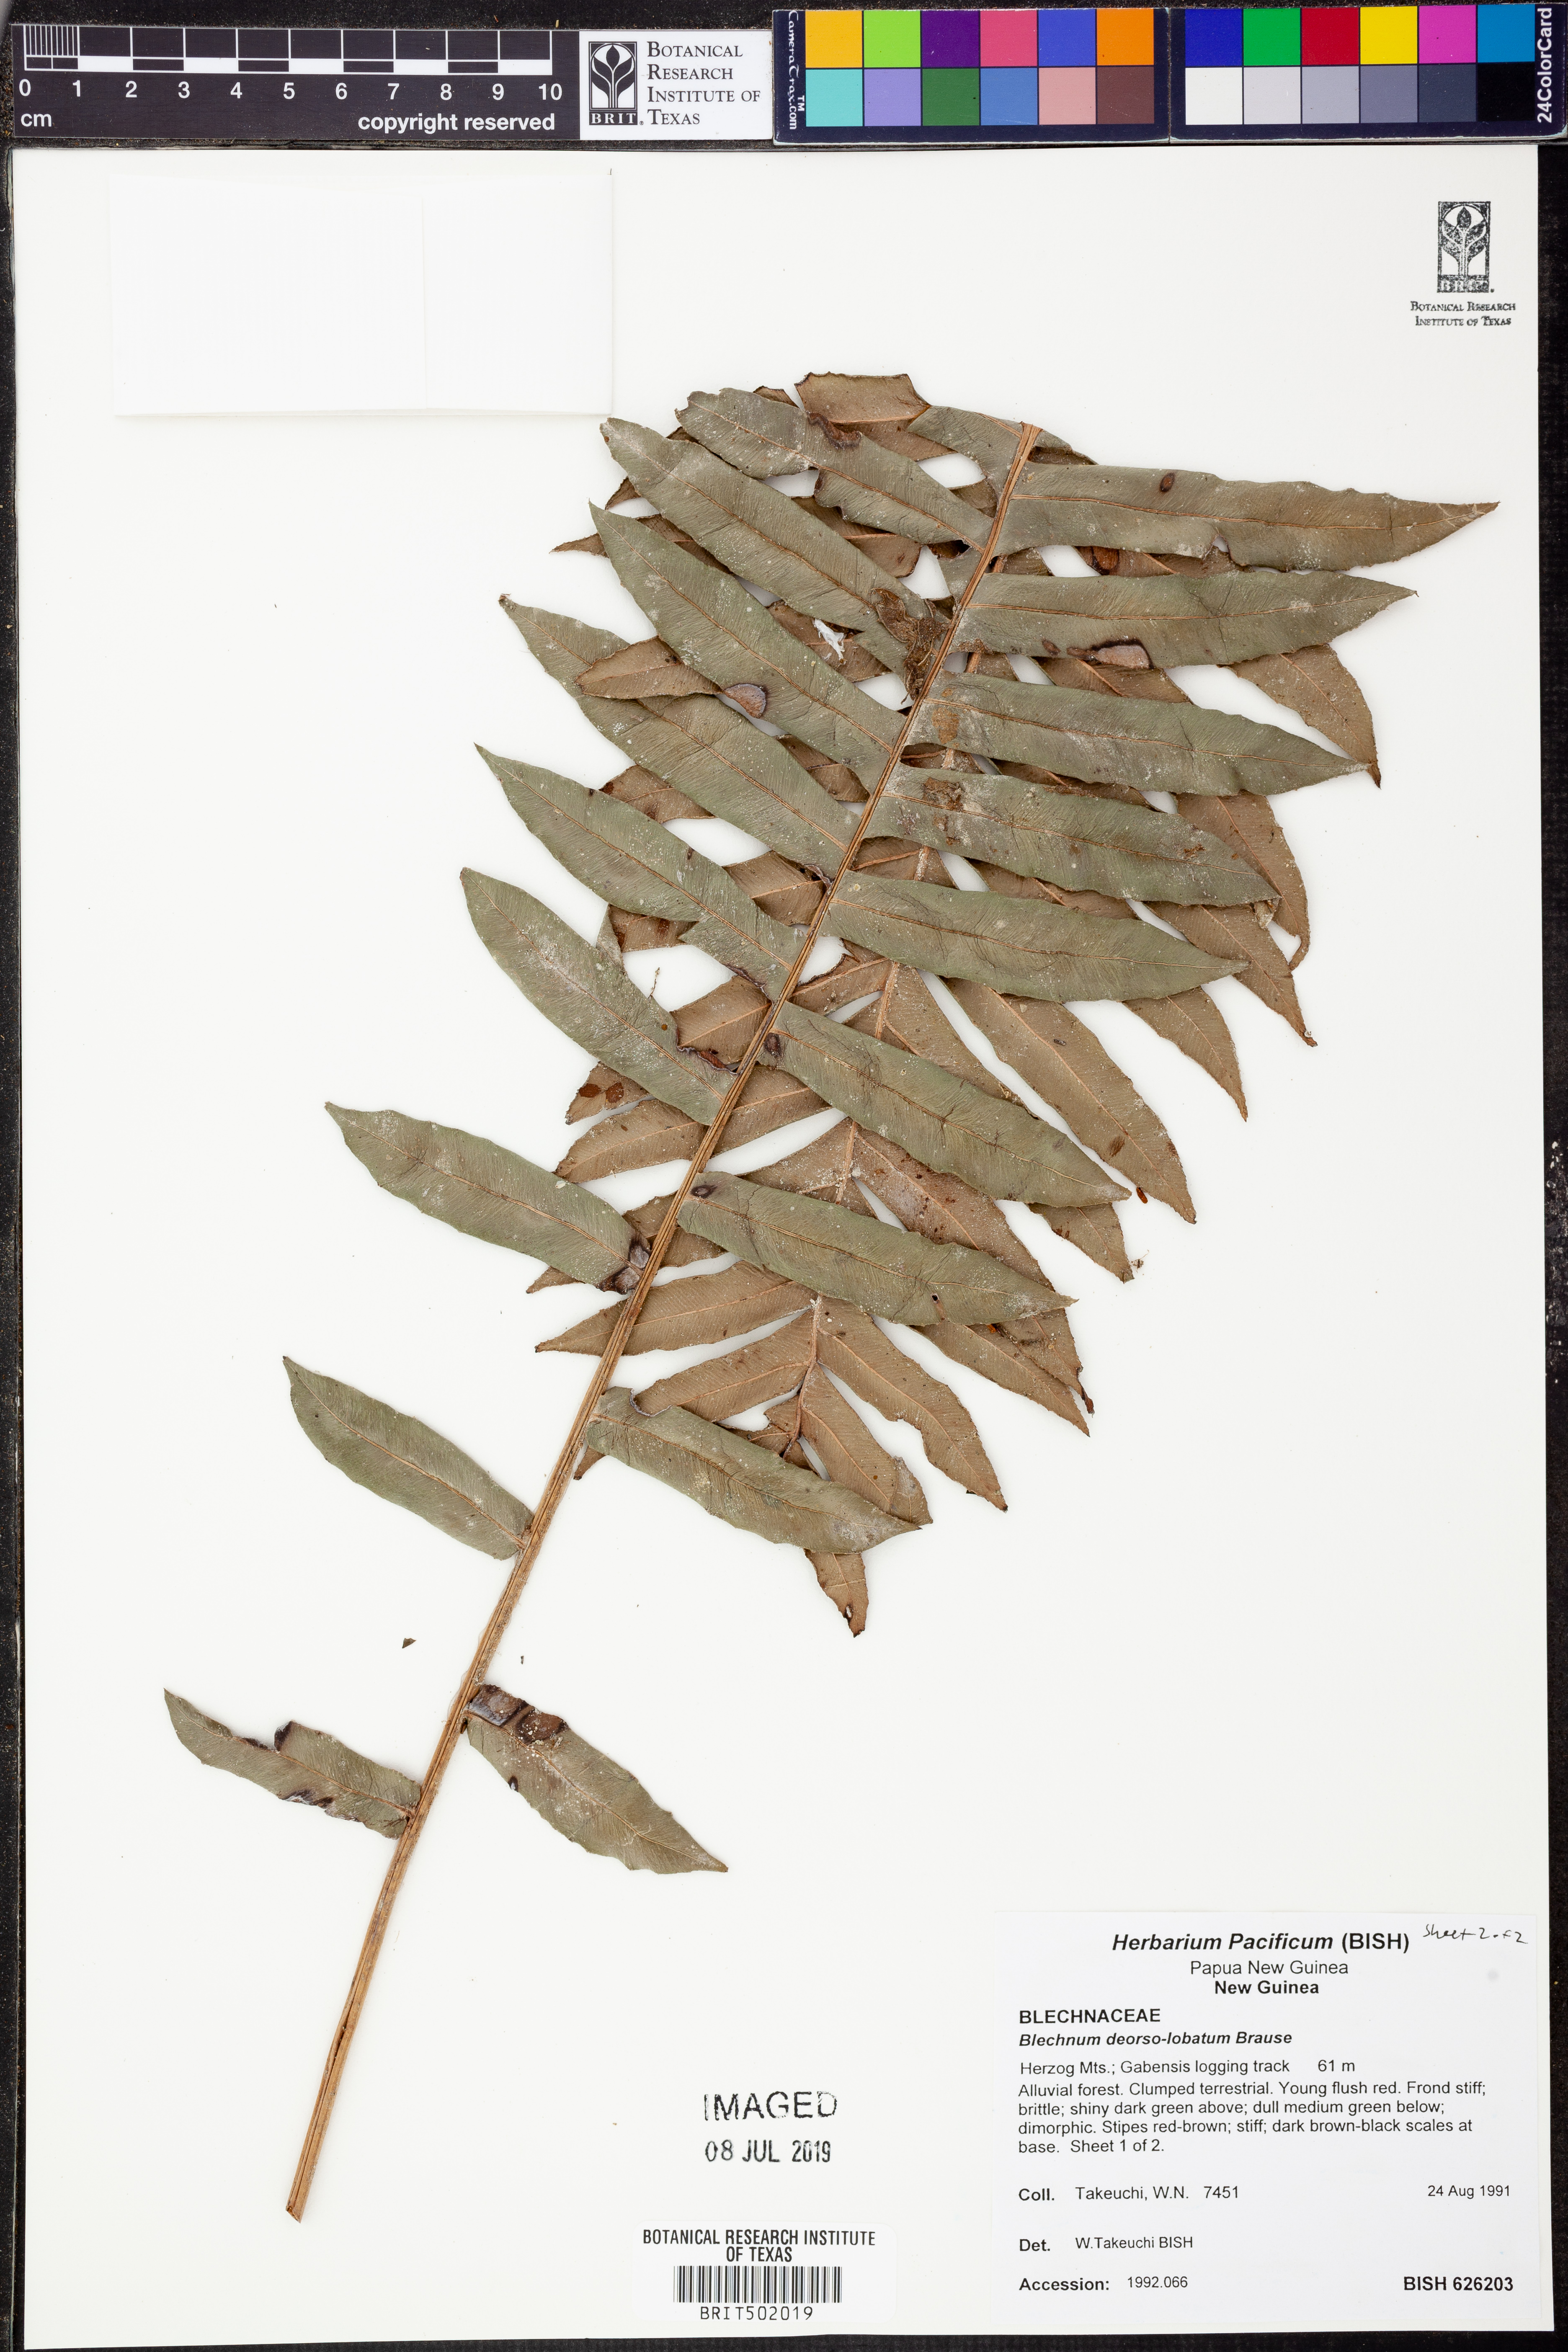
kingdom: Plantae
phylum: Tracheophyta
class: Polypodiopsida
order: Polypodiales
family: Blechnaceae
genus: Austroblechnum
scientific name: Austroblechnum keysseri
